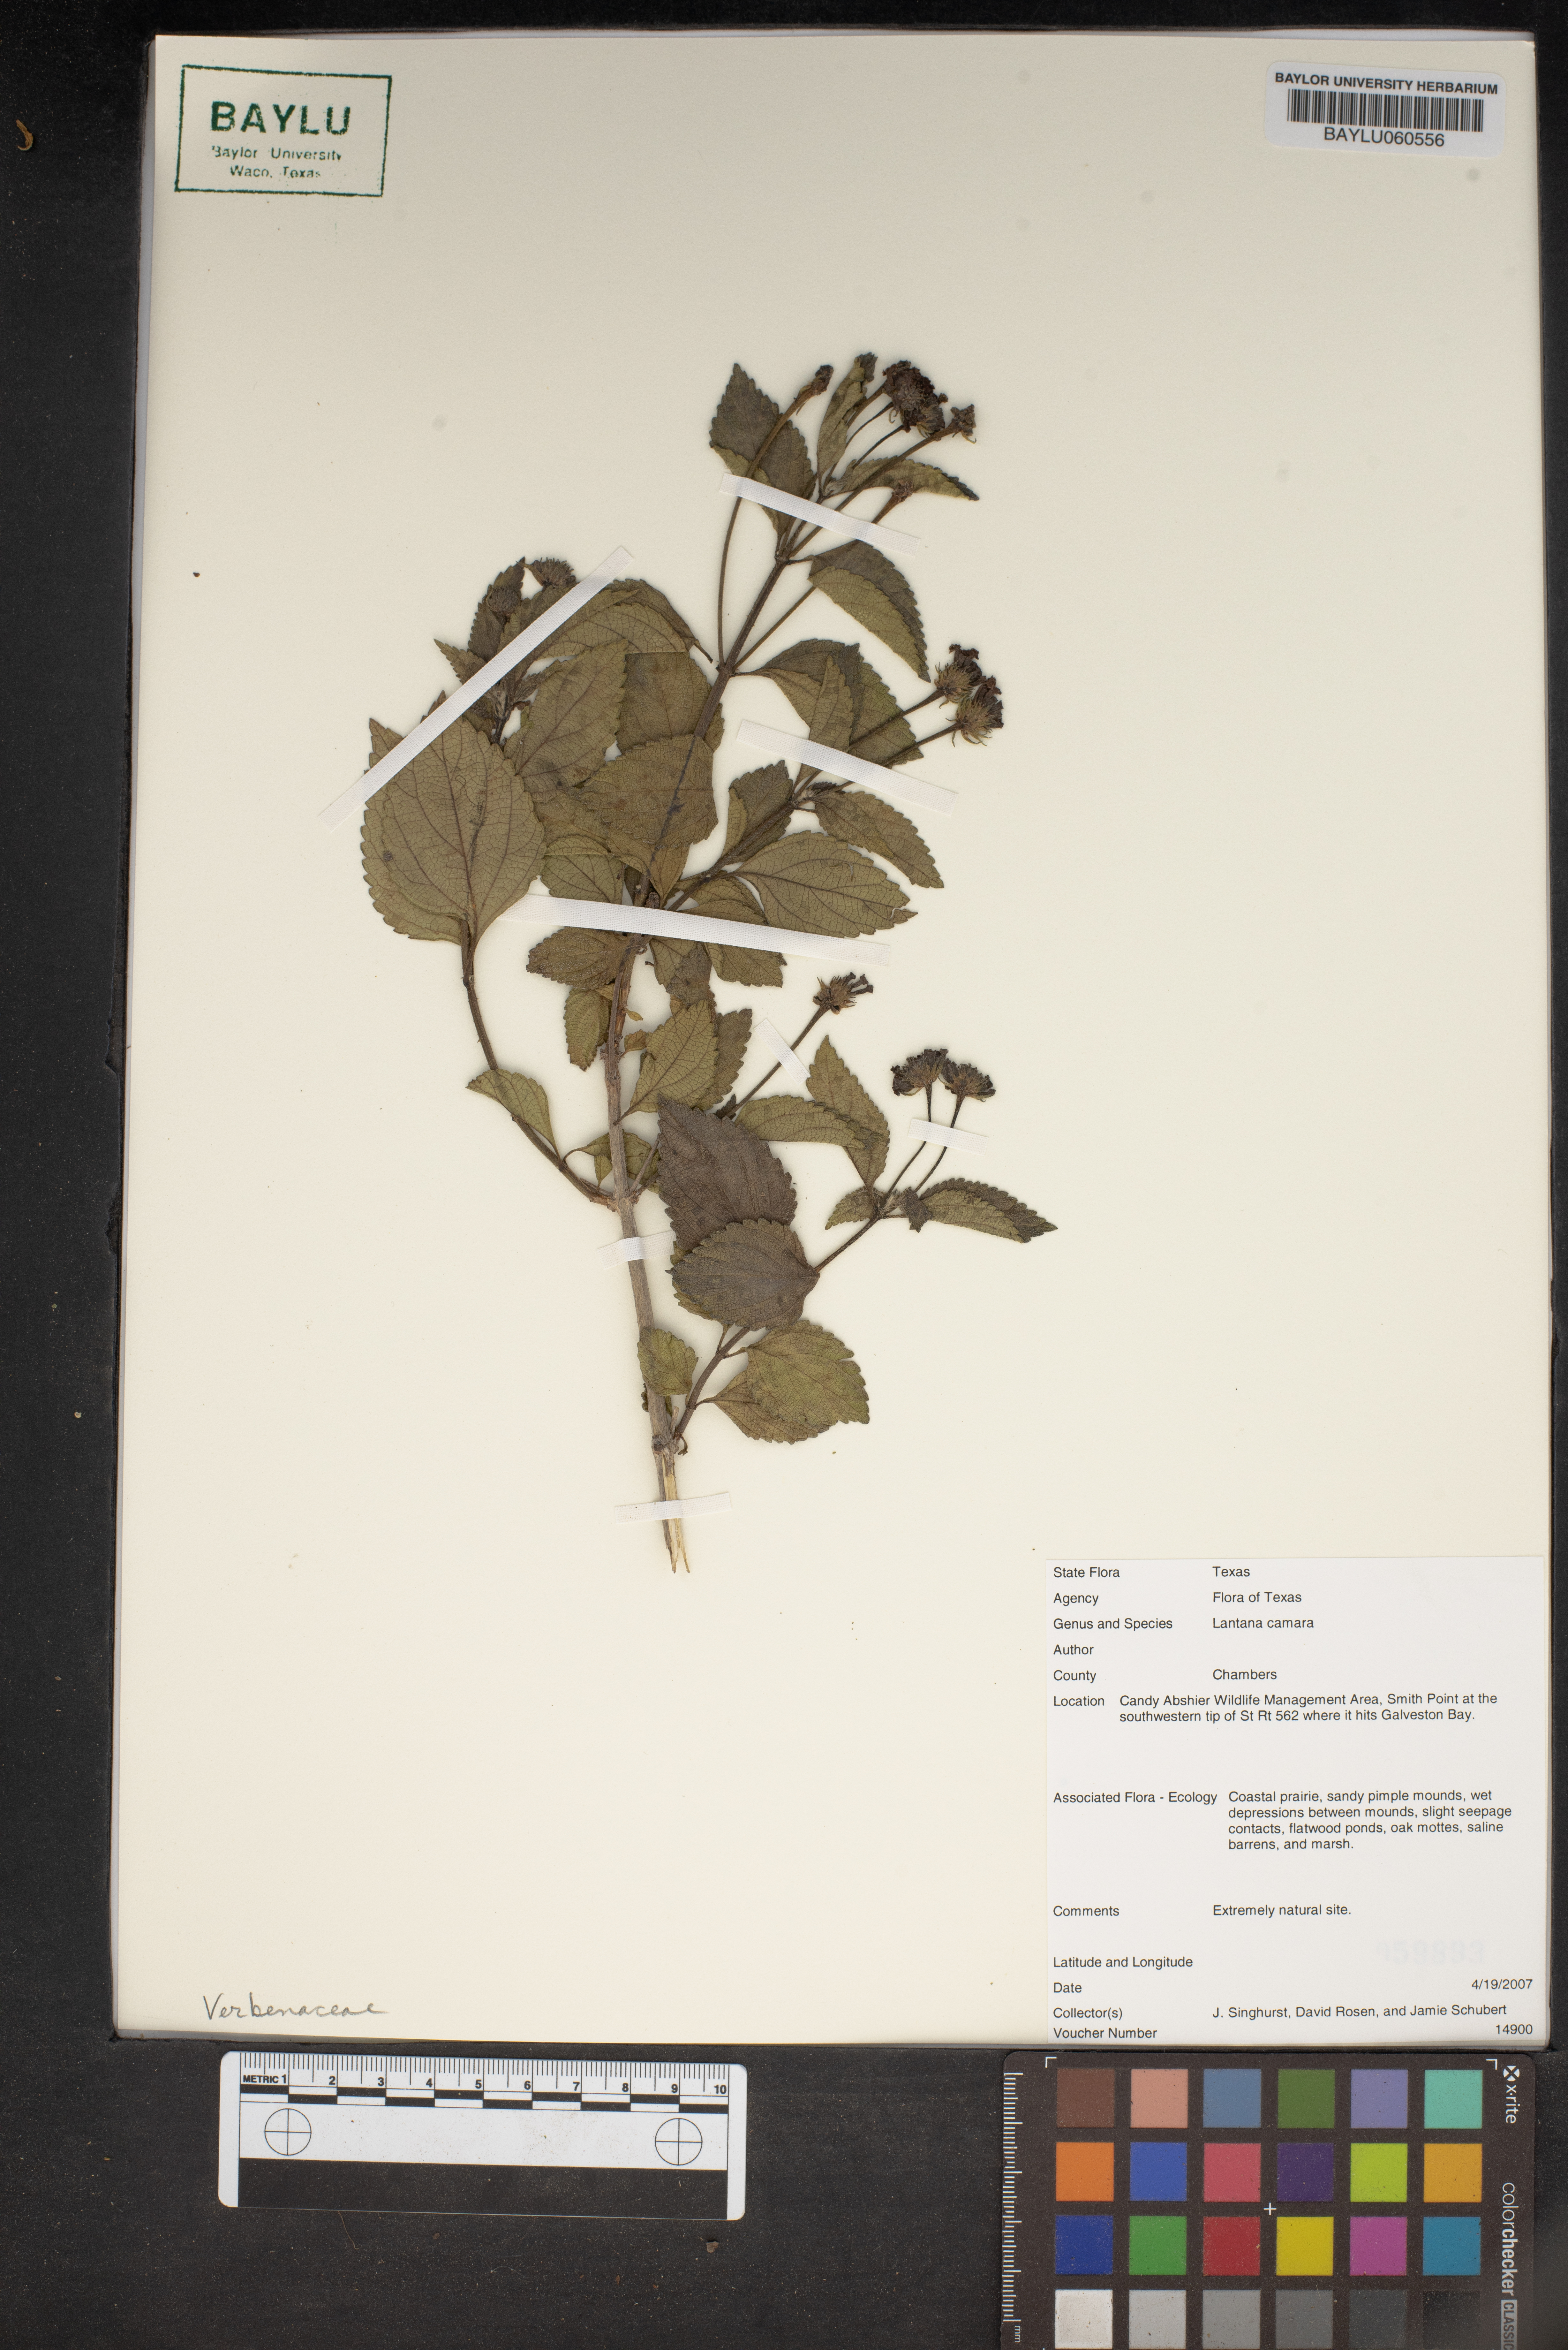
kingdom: Plantae
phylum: Tracheophyta
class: Magnoliopsida
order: Lamiales
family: Verbenaceae
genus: Lantana
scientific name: Lantana camara
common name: Lantana
